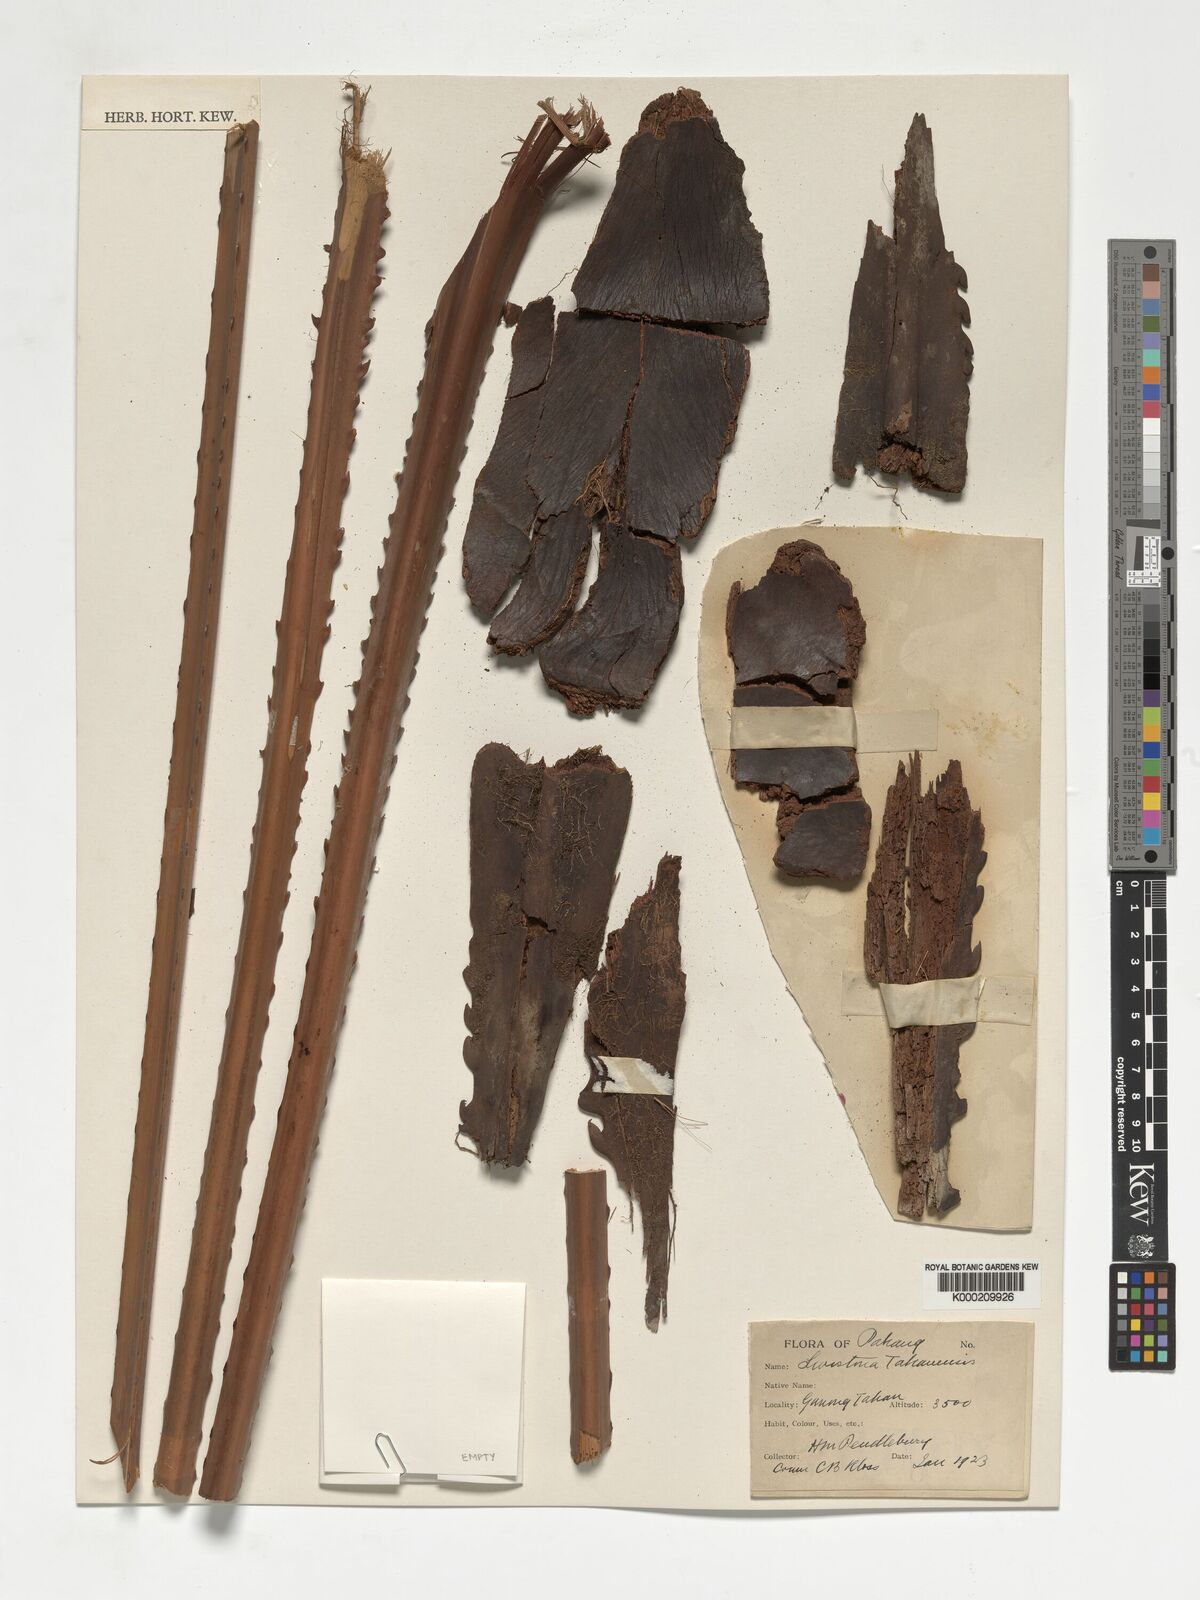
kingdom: Plantae
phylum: Tracheophyta
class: Liliopsida
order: Arecales
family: Arecaceae
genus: Livistona
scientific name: Livistona tahanensis
